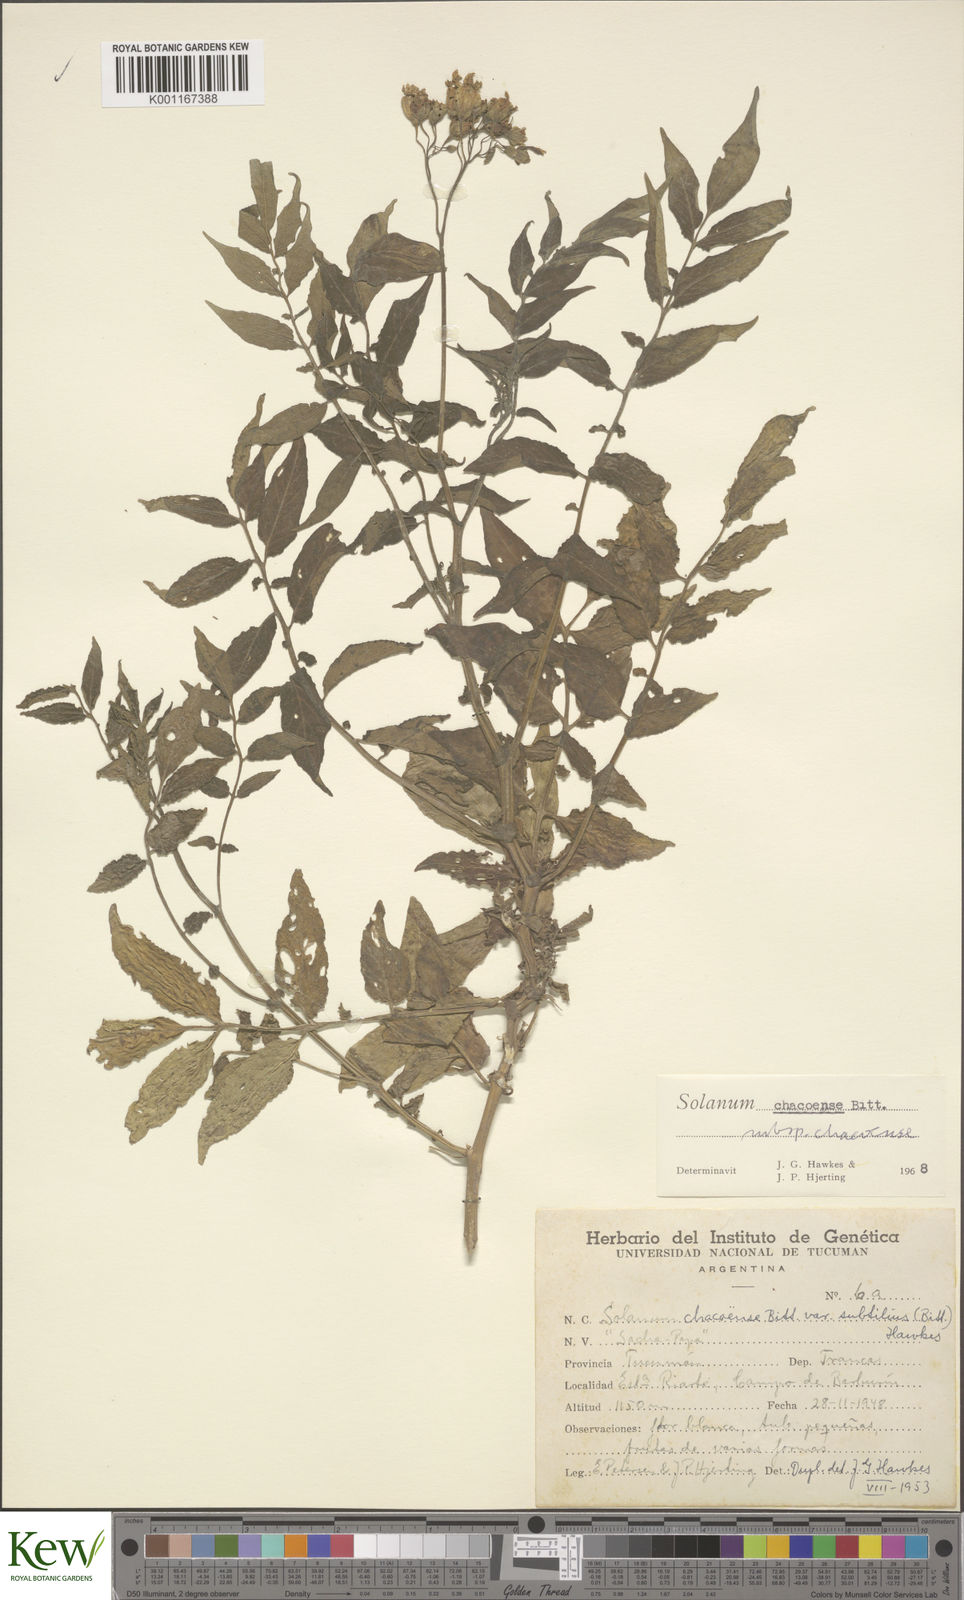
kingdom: Plantae
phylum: Tracheophyta
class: Magnoliopsida
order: Solanales
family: Solanaceae
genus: Solanum
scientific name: Solanum chacoense
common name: Chaco potato
